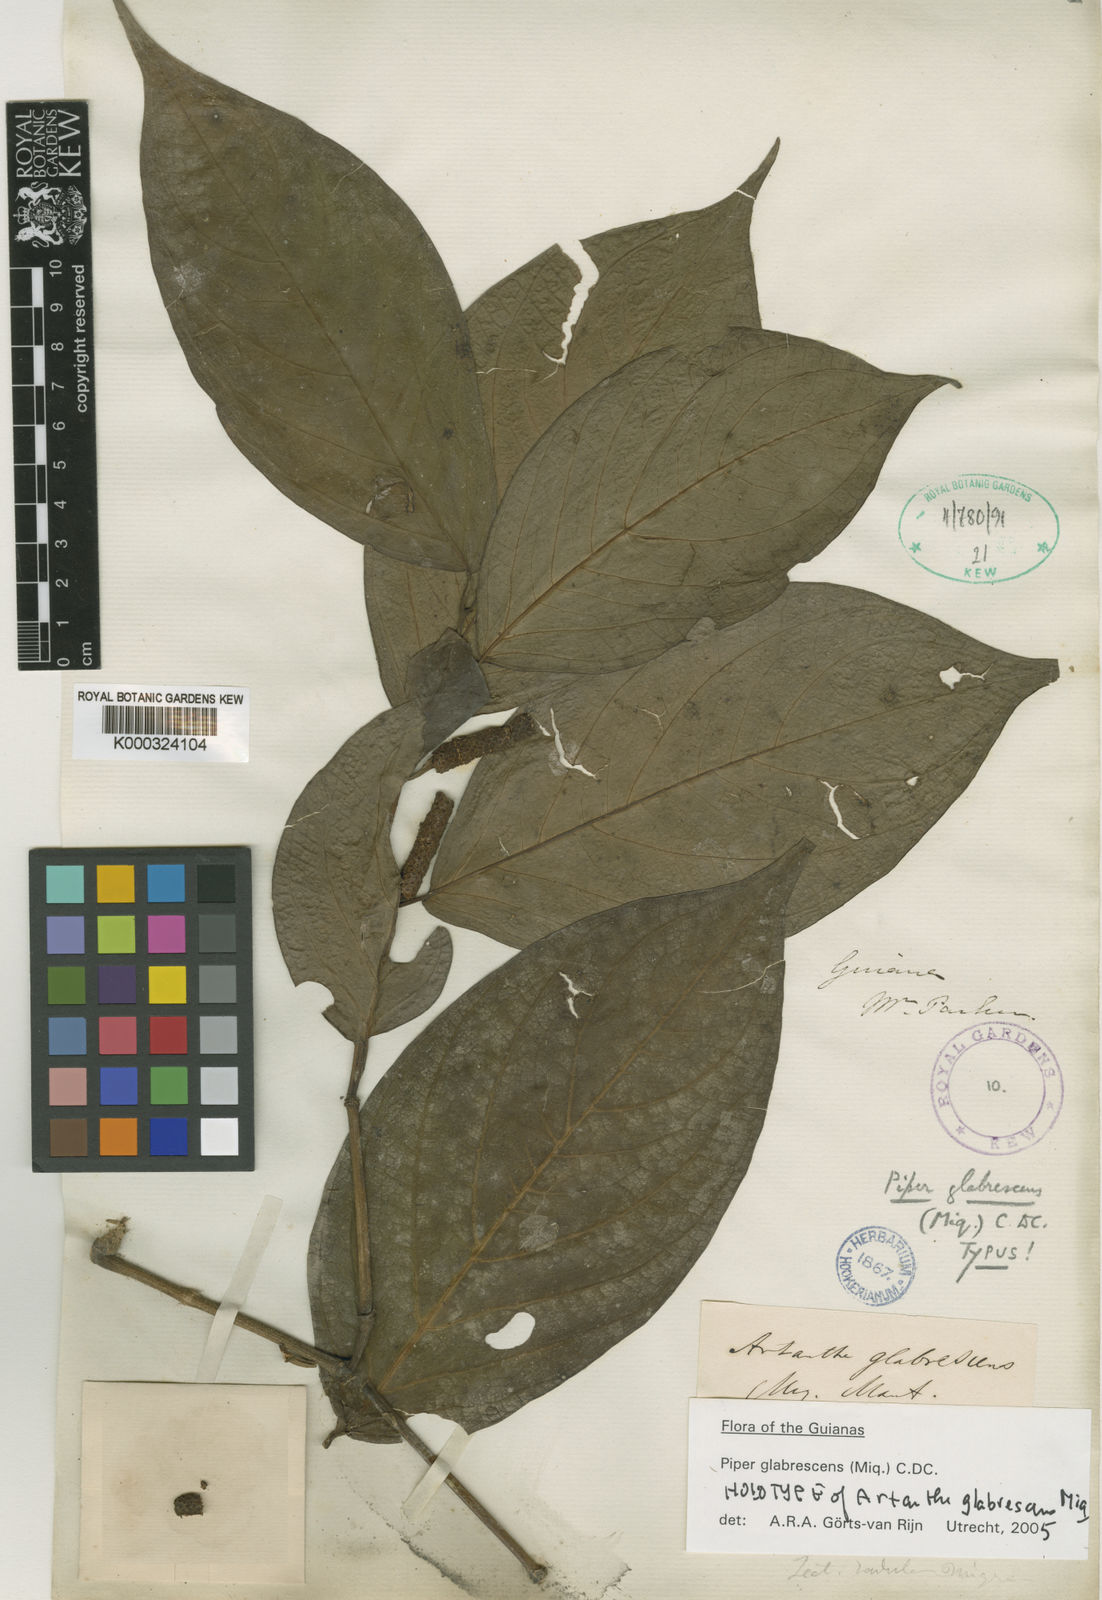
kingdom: Plantae
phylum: Tracheophyta
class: Magnoliopsida
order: Piperales
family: Piperaceae
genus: Piper
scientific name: Piper glabrescens
